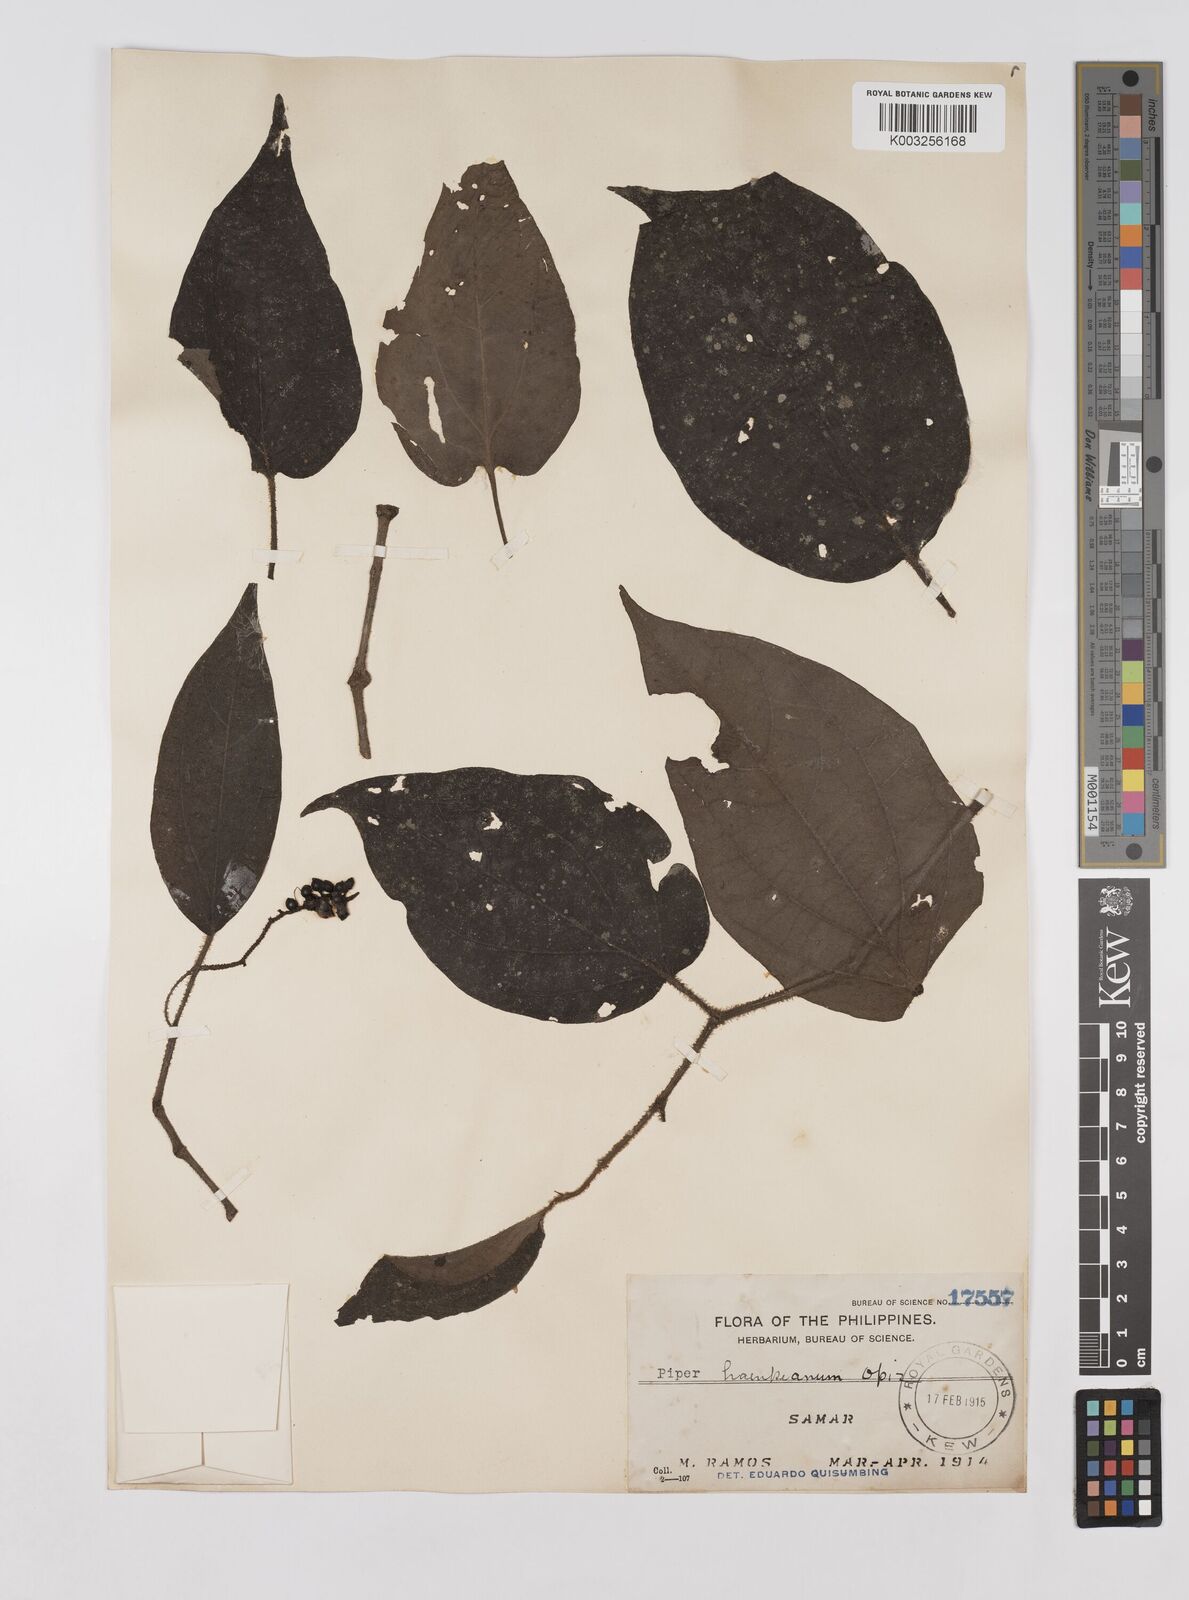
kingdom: Plantae
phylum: Tracheophyta
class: Magnoliopsida
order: Piperales
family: Piperaceae
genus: Piper
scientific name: Piper lanatum
